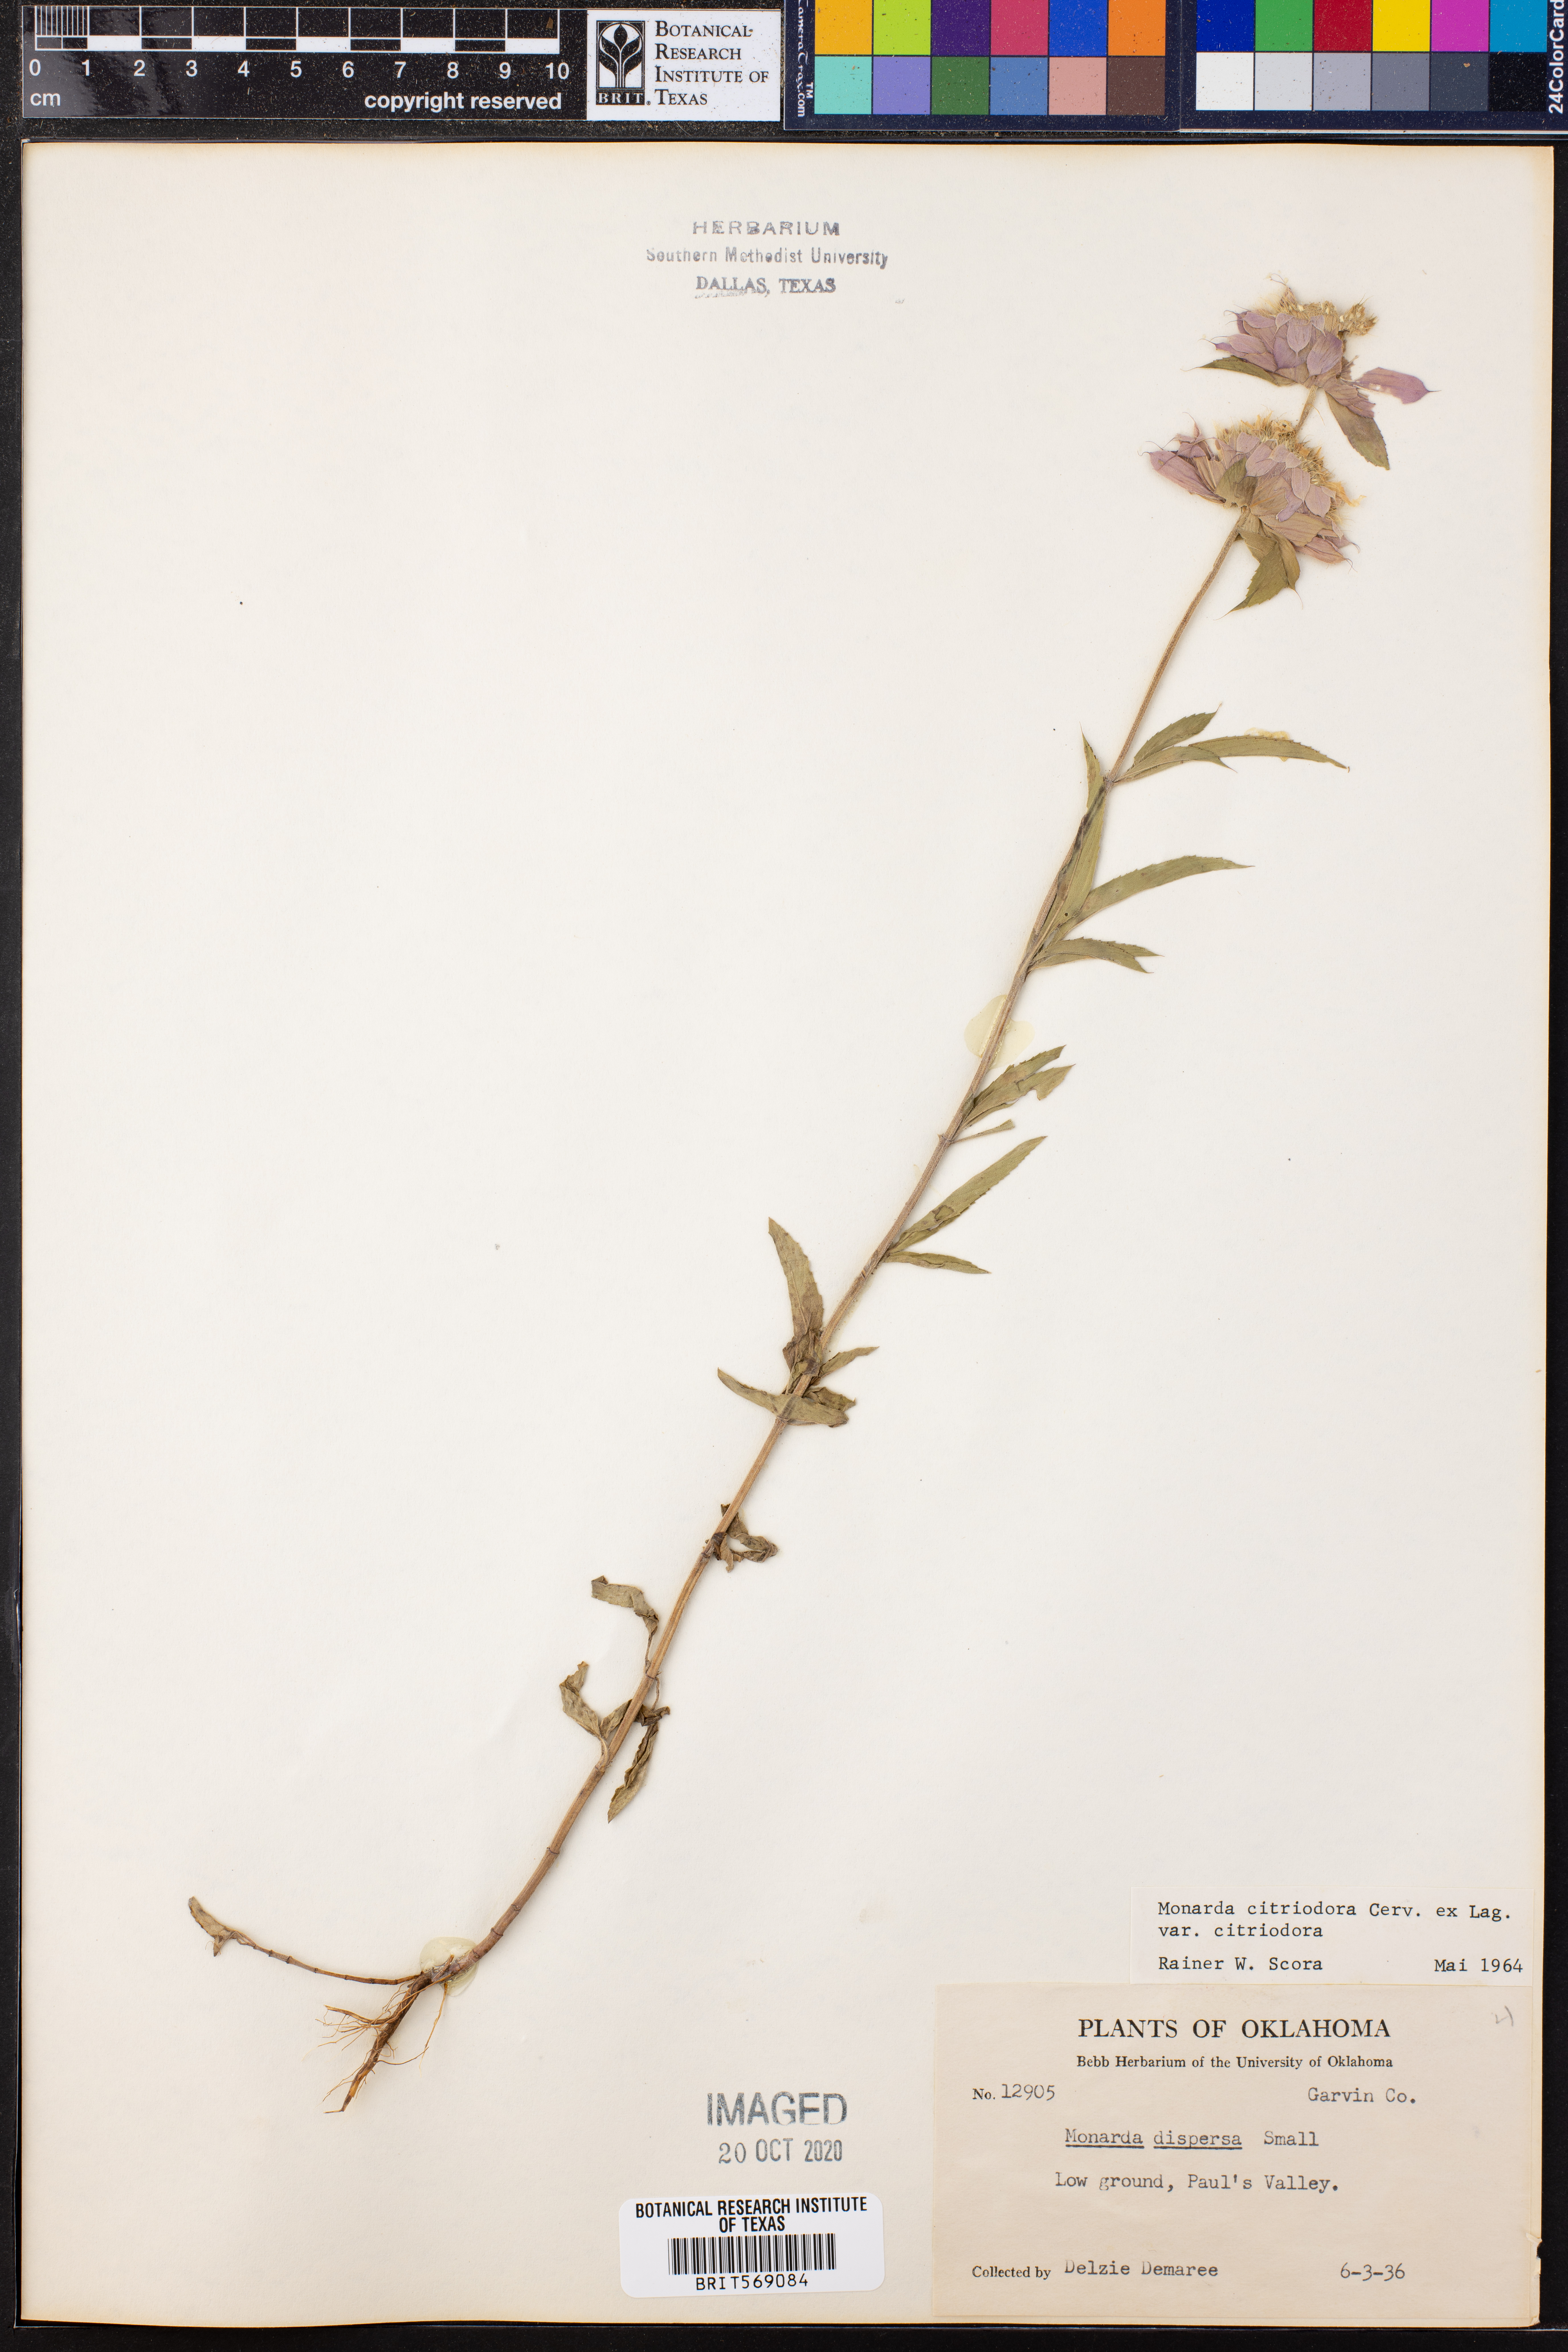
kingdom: Plantae
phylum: Tracheophyta
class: Magnoliopsida
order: Lamiales
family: Lamiaceae
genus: Monarda
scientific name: Monarda citriodora
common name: Lemon beebalm
